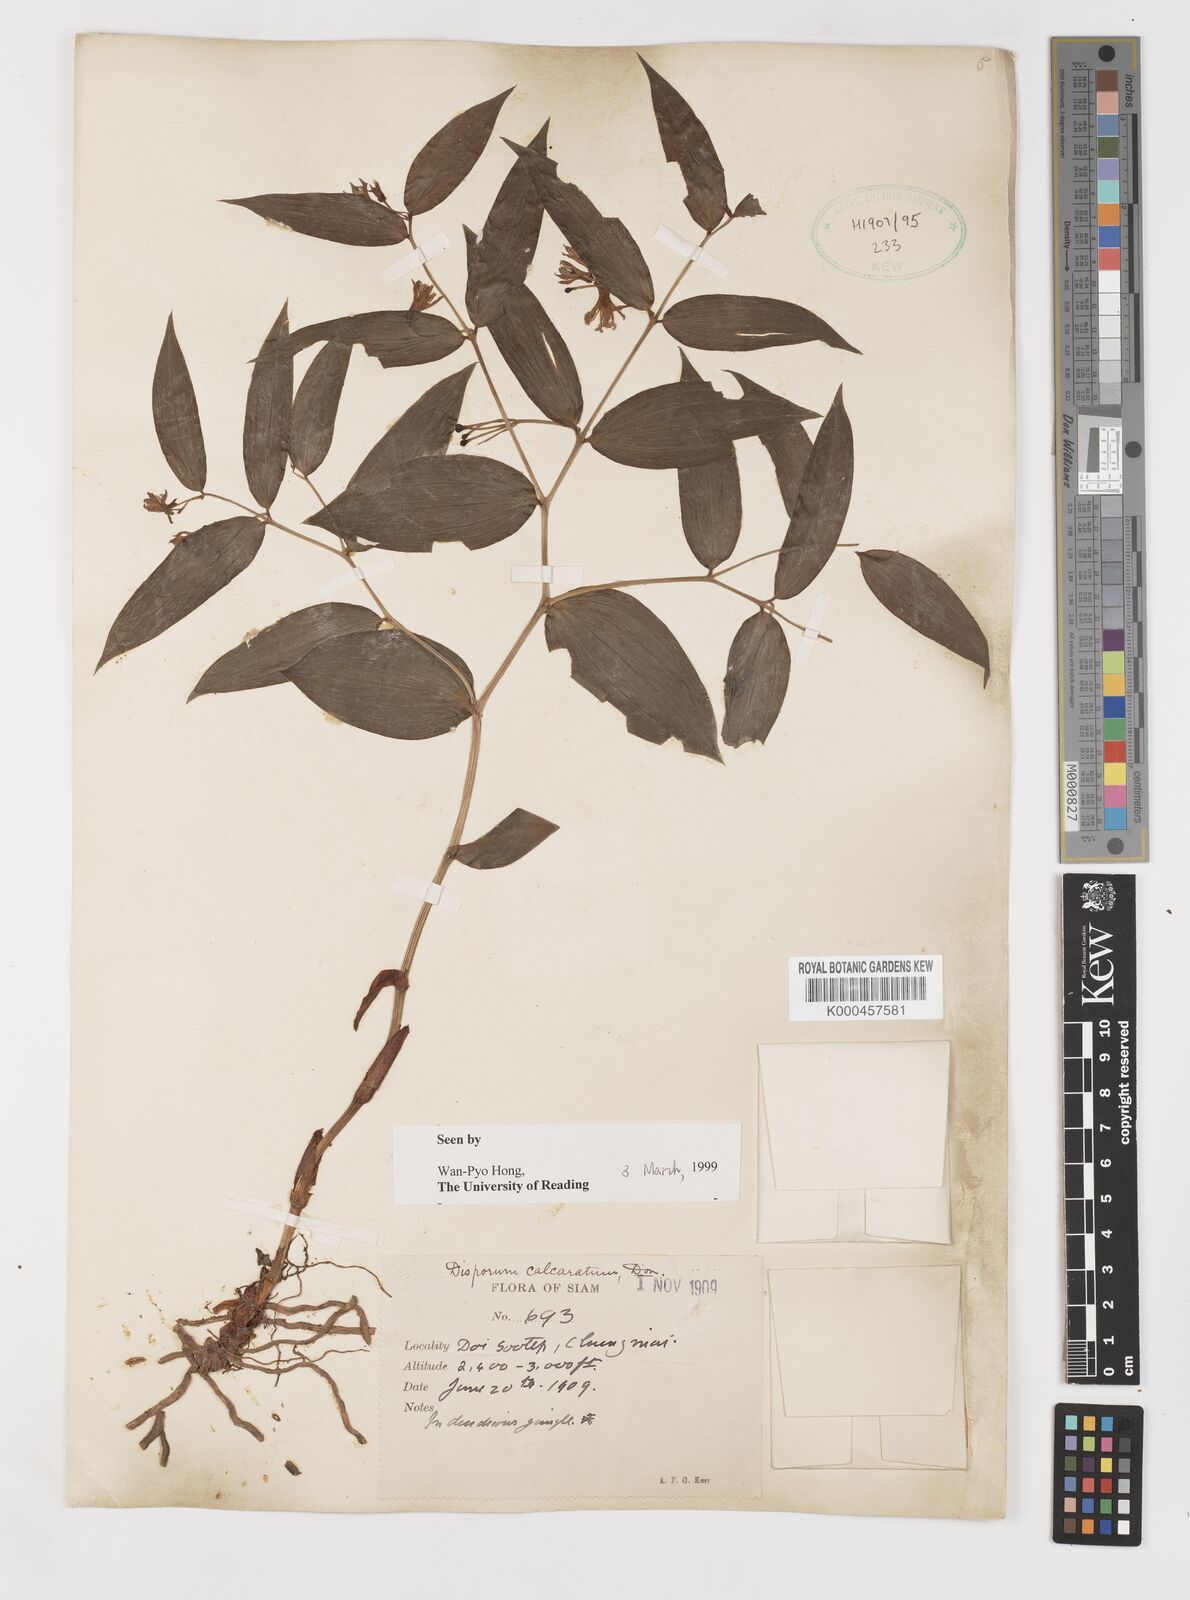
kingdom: Plantae
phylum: Tracheophyta
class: Liliopsida
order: Liliales
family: Colchicaceae
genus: Disporum
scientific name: Disporum calcaratum
